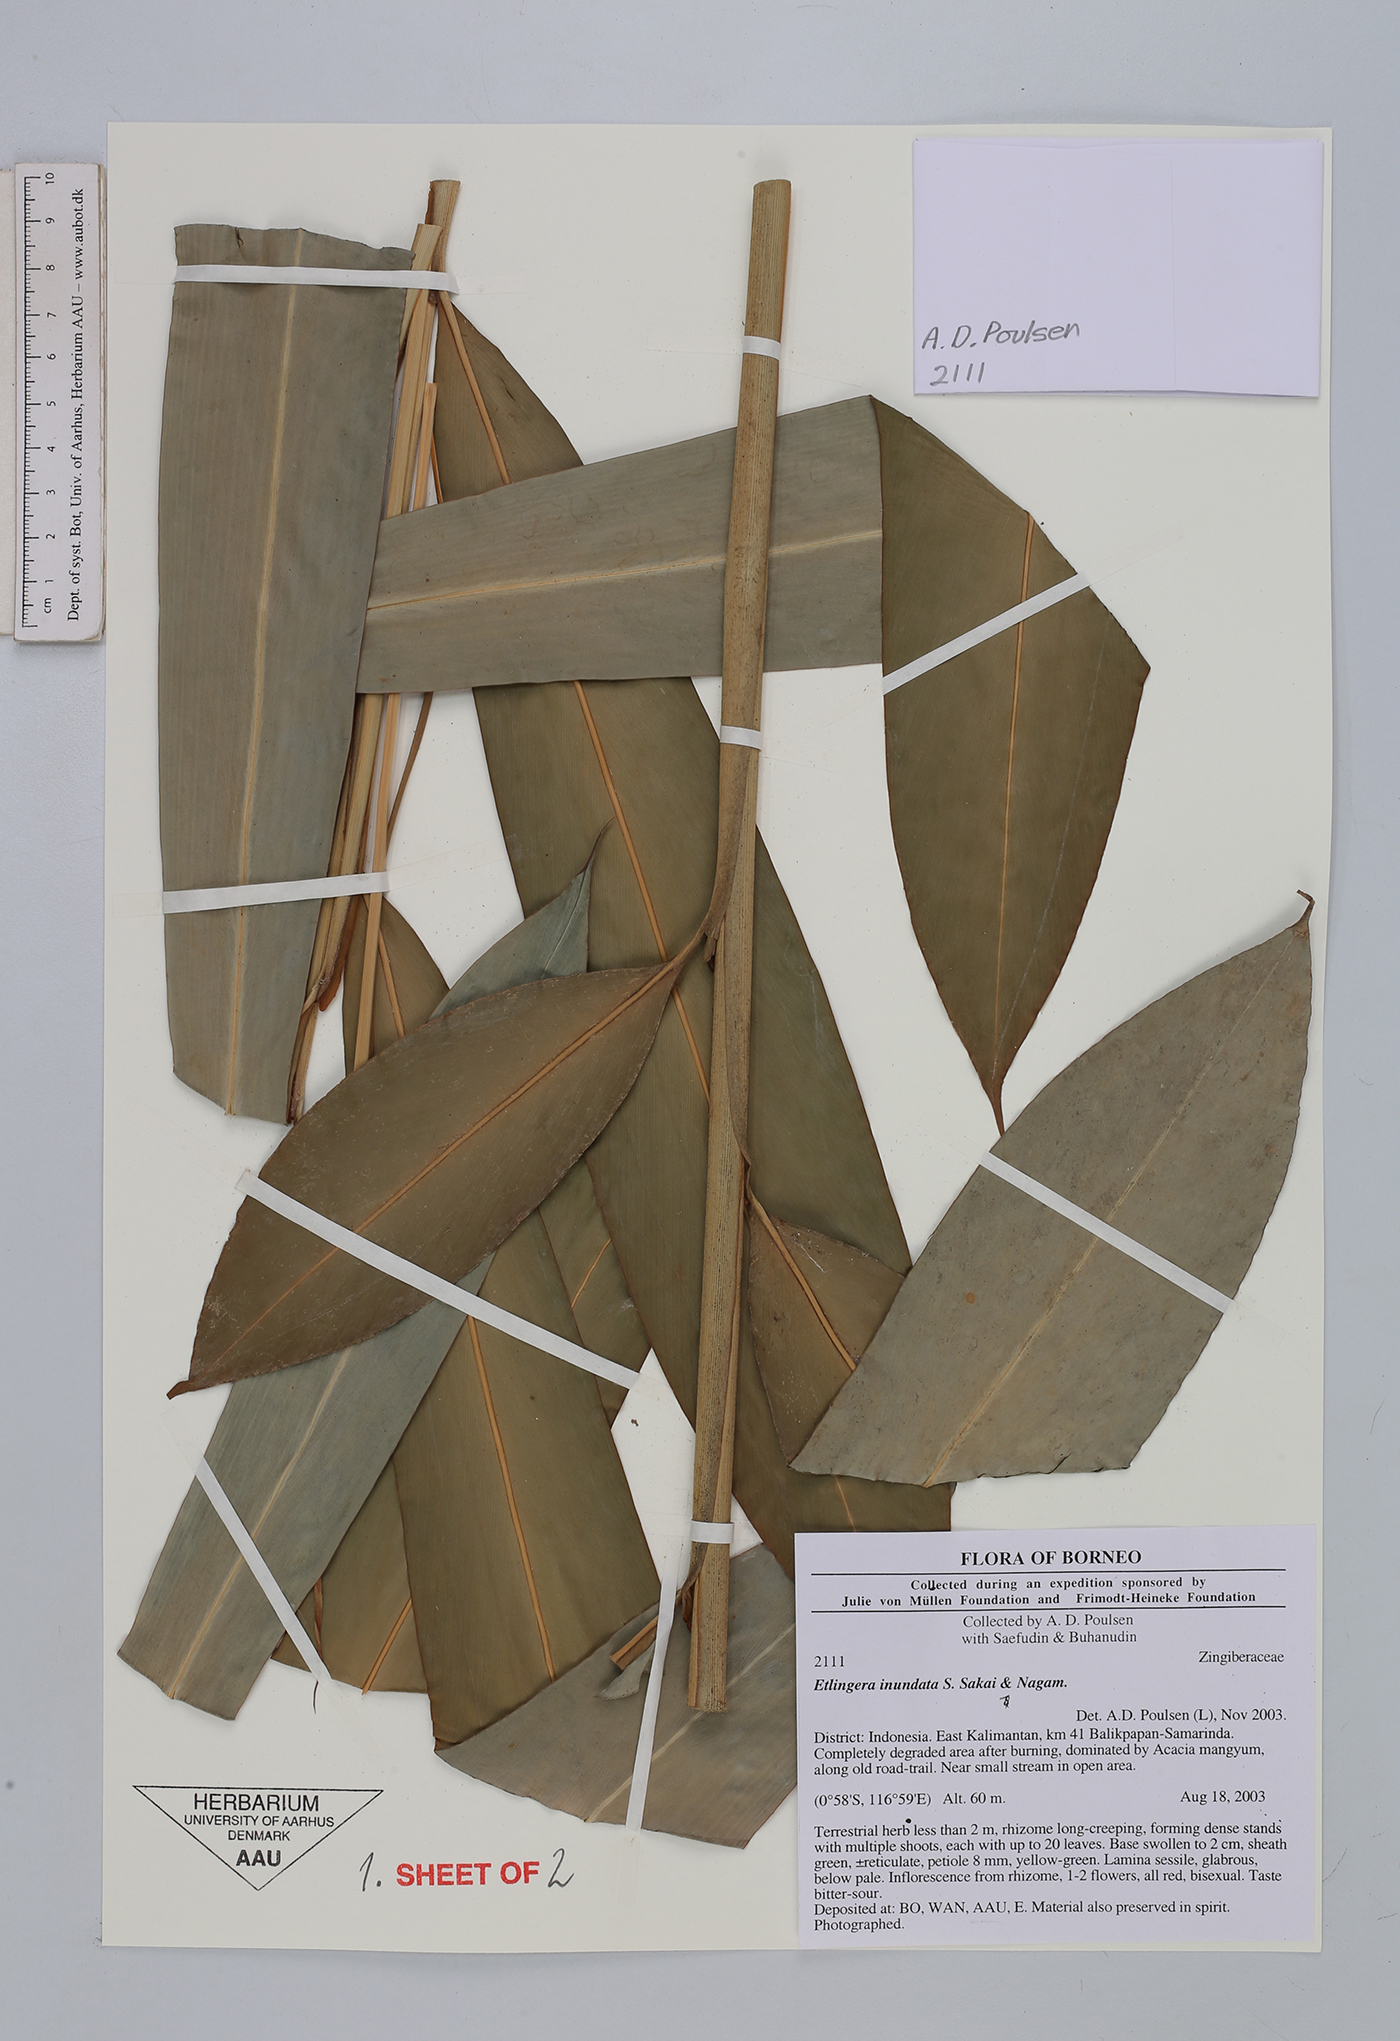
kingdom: Plantae
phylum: Tracheophyta
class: Liliopsida
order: Zingiberales
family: Zingiberaceae
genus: Etlingera
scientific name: Etlingera inundata
